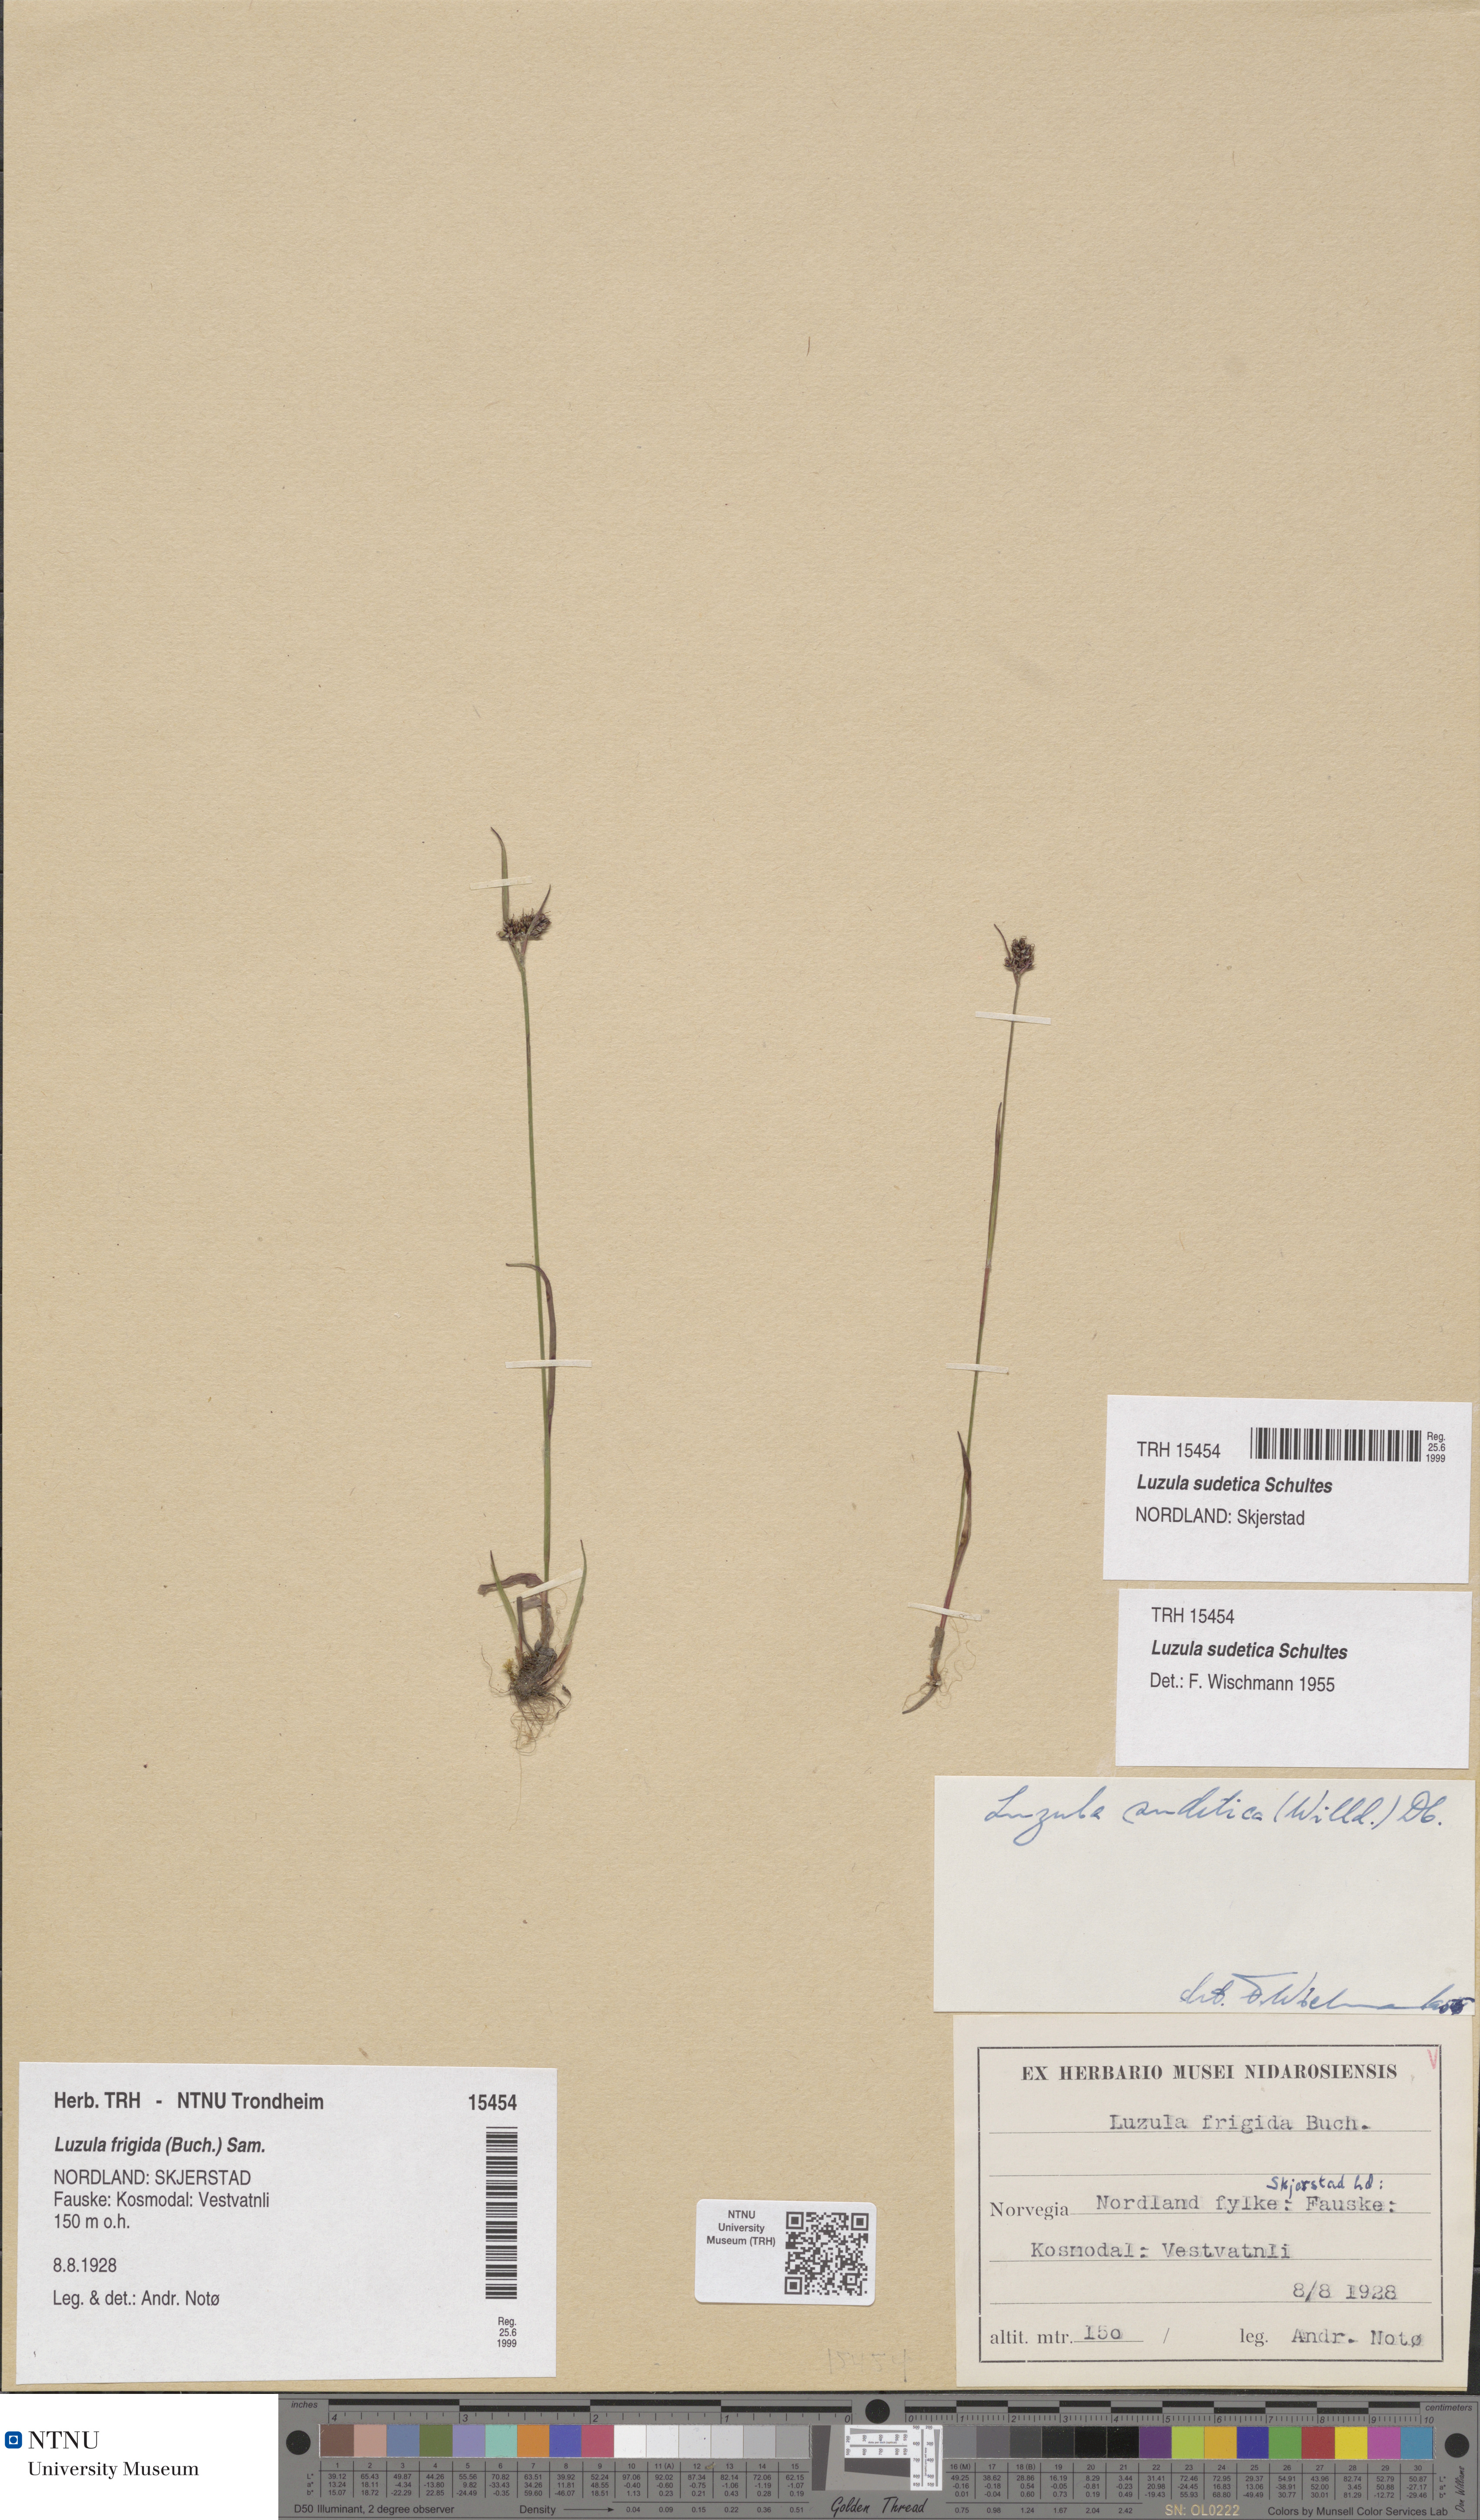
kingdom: Plantae
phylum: Tracheophyta
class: Liliopsida
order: Poales
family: Juncaceae
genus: Luzula
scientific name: Luzula sudetica
